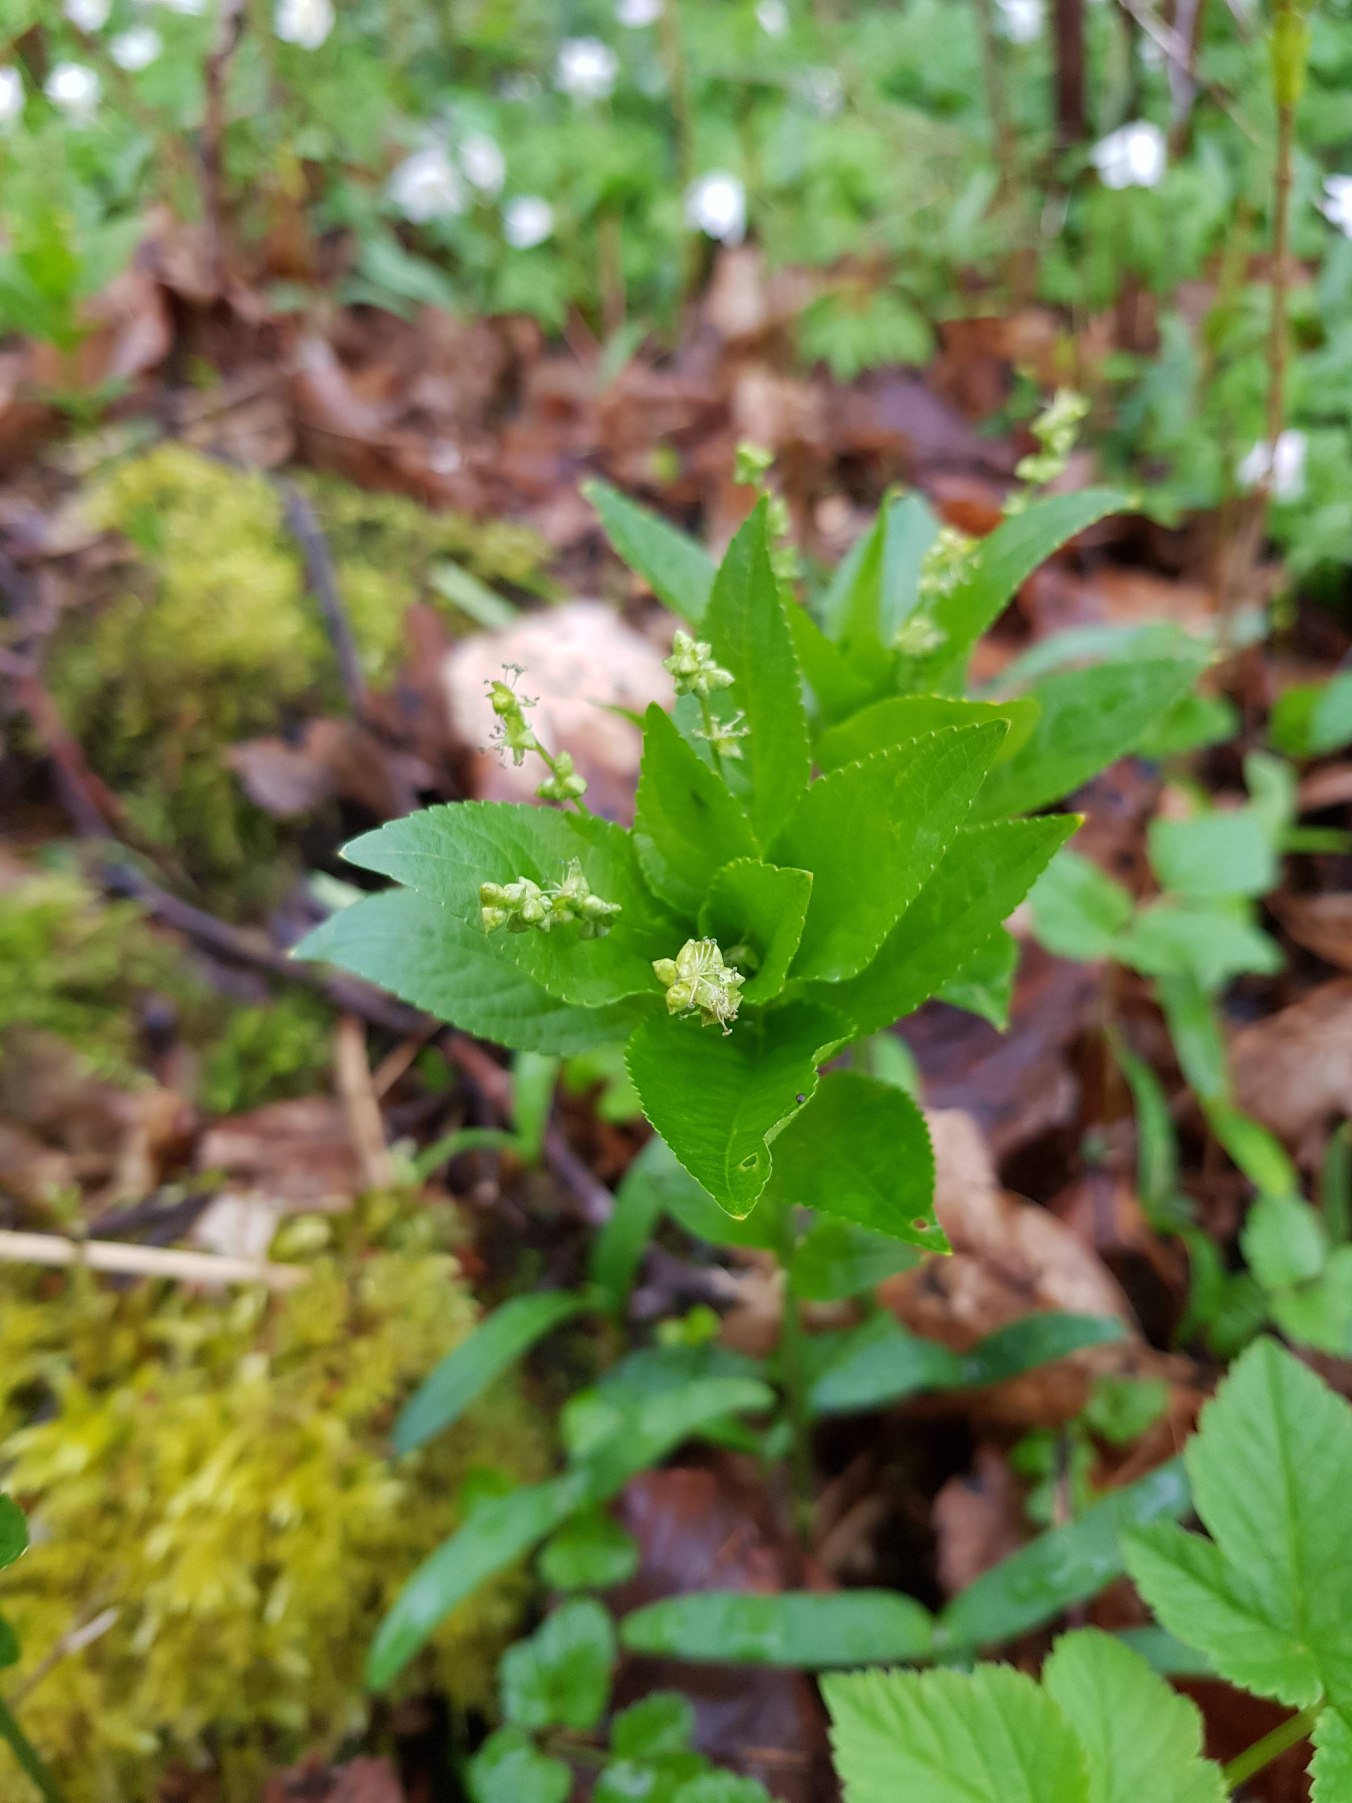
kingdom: Plantae
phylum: Tracheophyta
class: Magnoliopsida
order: Malpighiales
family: Euphorbiaceae
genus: Mercurialis
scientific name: Mercurialis perennis
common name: Almindelig bingelurt
